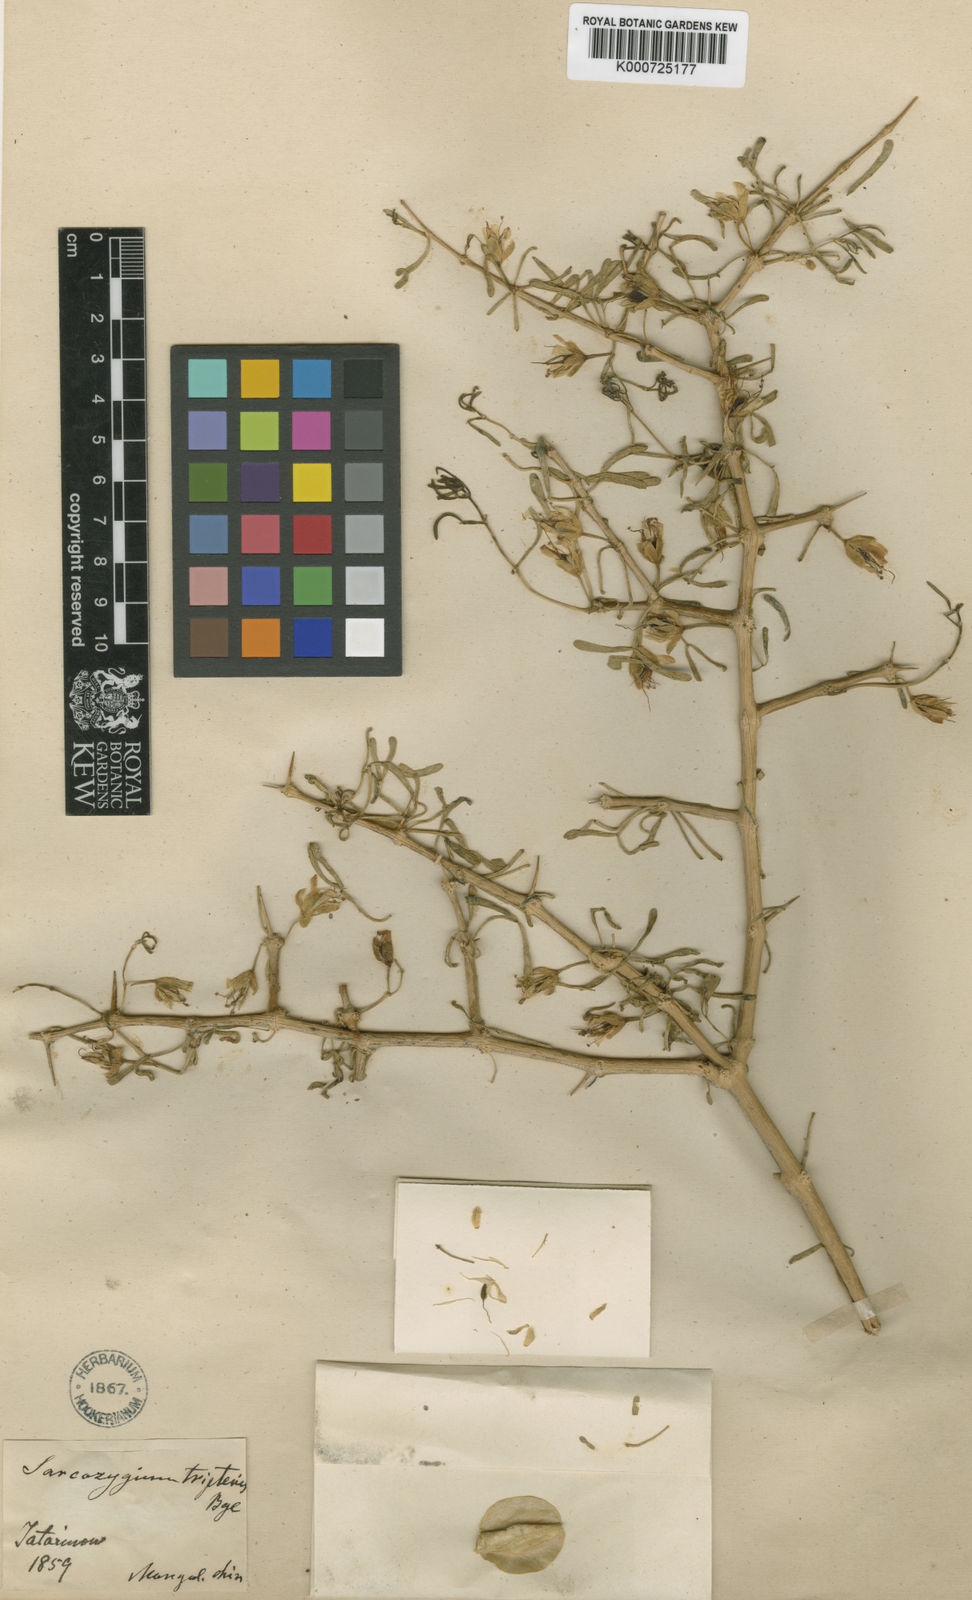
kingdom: Plantae
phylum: Tracheophyta
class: Magnoliopsida
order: Zygophyllales
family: Zygophyllaceae
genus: Zygophyllum
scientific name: Zygophyllum
